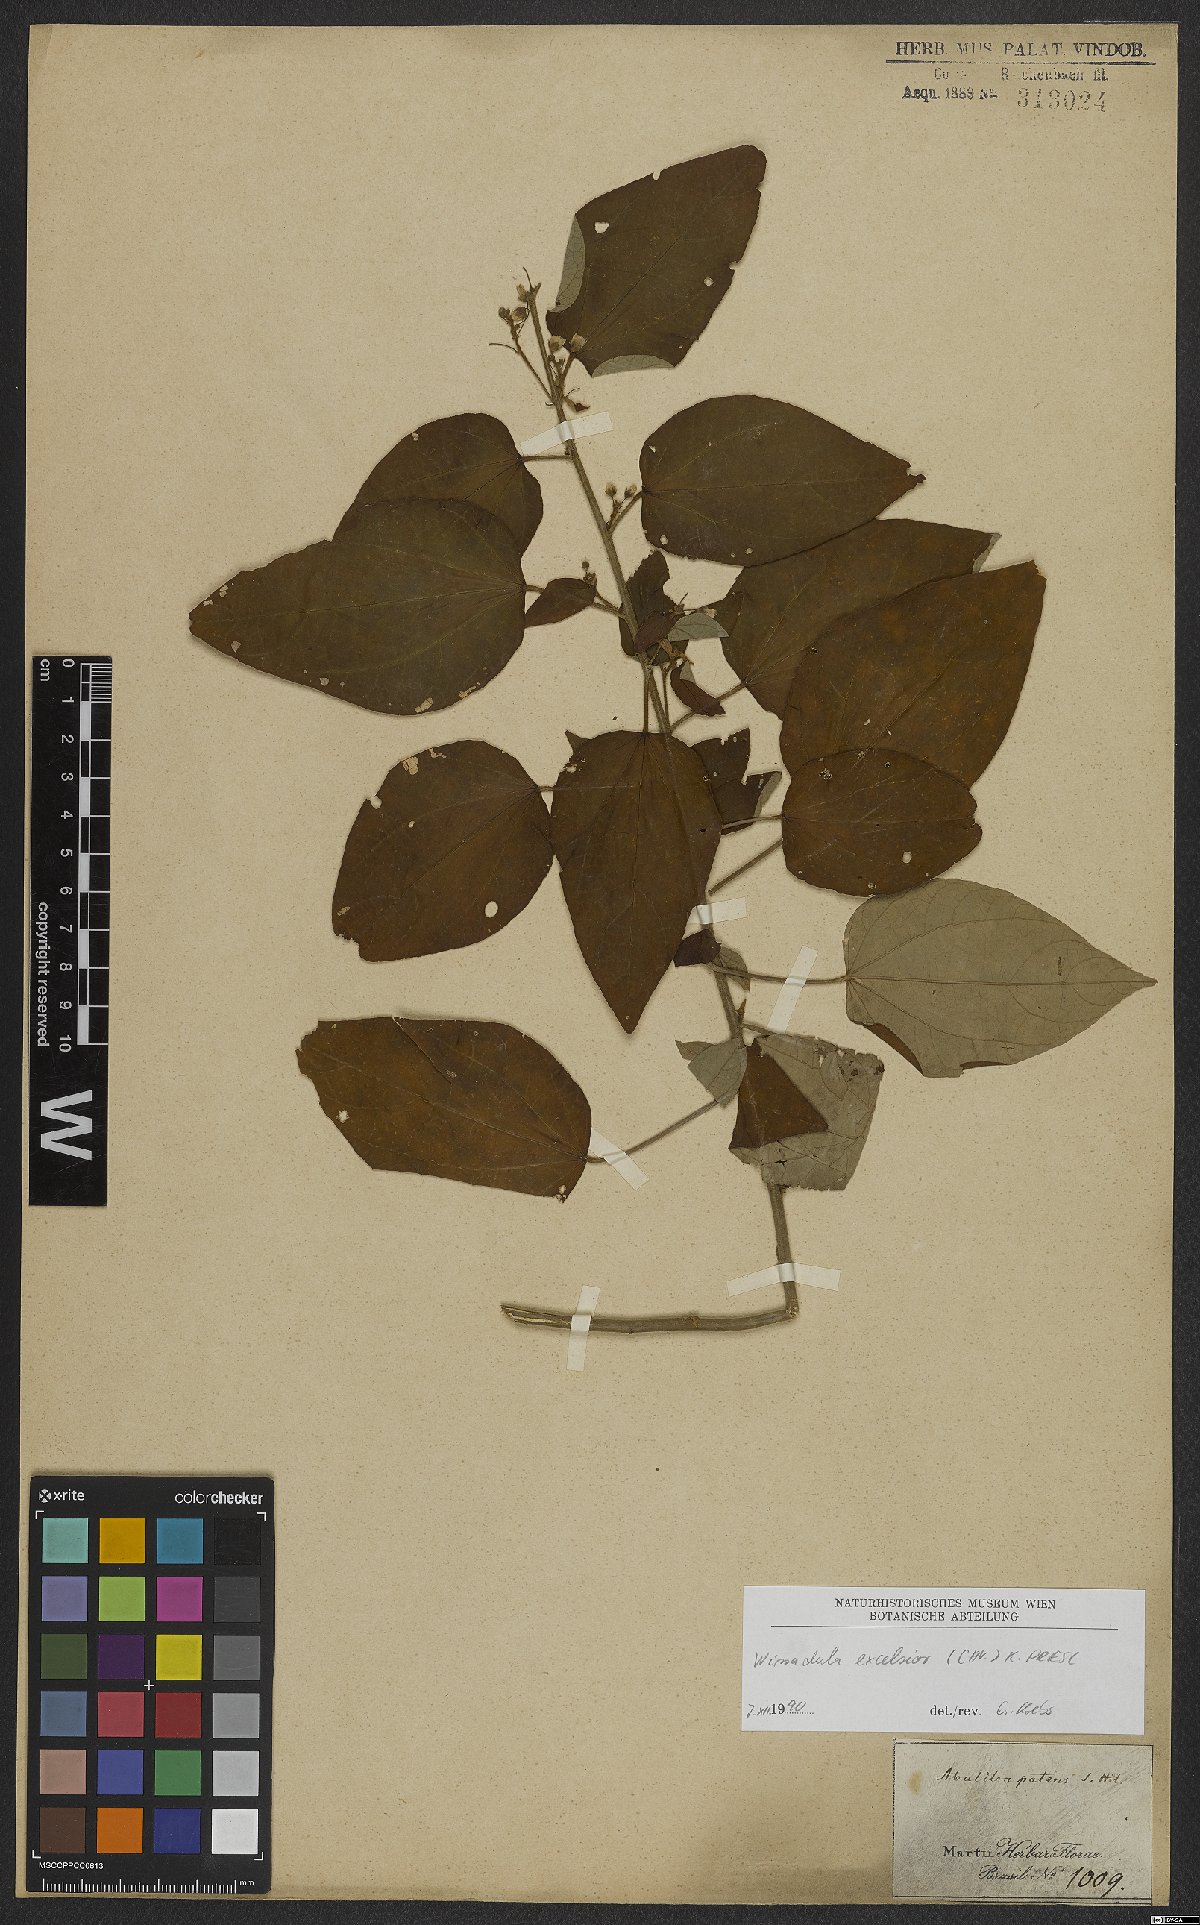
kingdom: Plantae
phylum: Tracheophyta
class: Magnoliopsida
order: Malvales
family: Malvaceae
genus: Wissadula
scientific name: Wissadula excelsior
